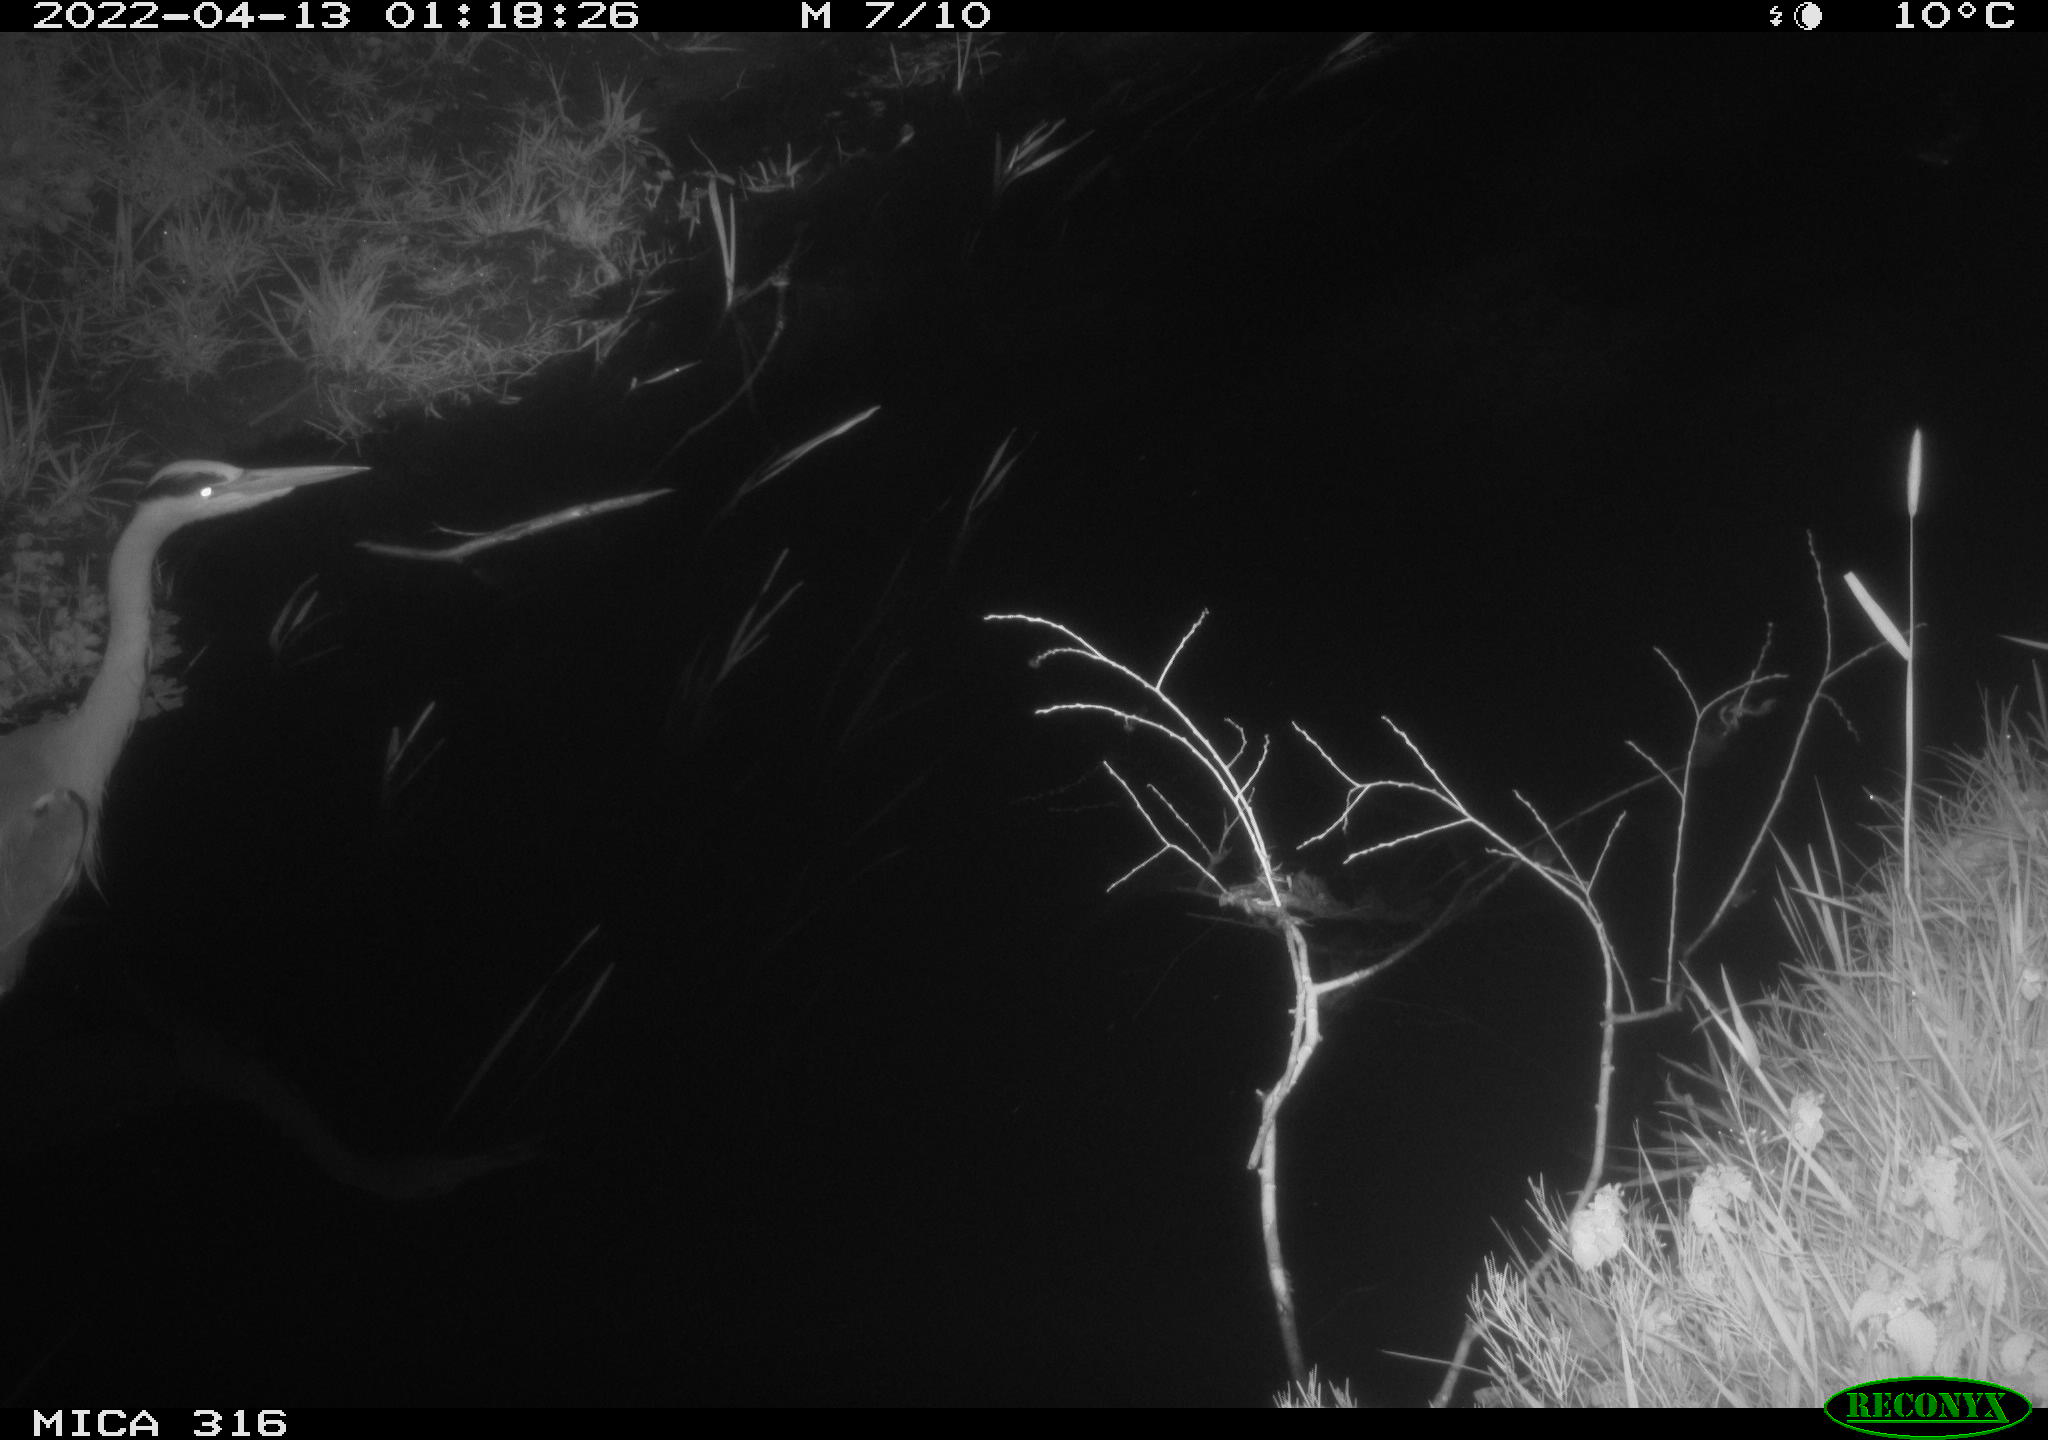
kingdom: Animalia
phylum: Chordata
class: Aves
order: Pelecaniformes
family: Ardeidae
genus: Ardea
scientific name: Ardea
